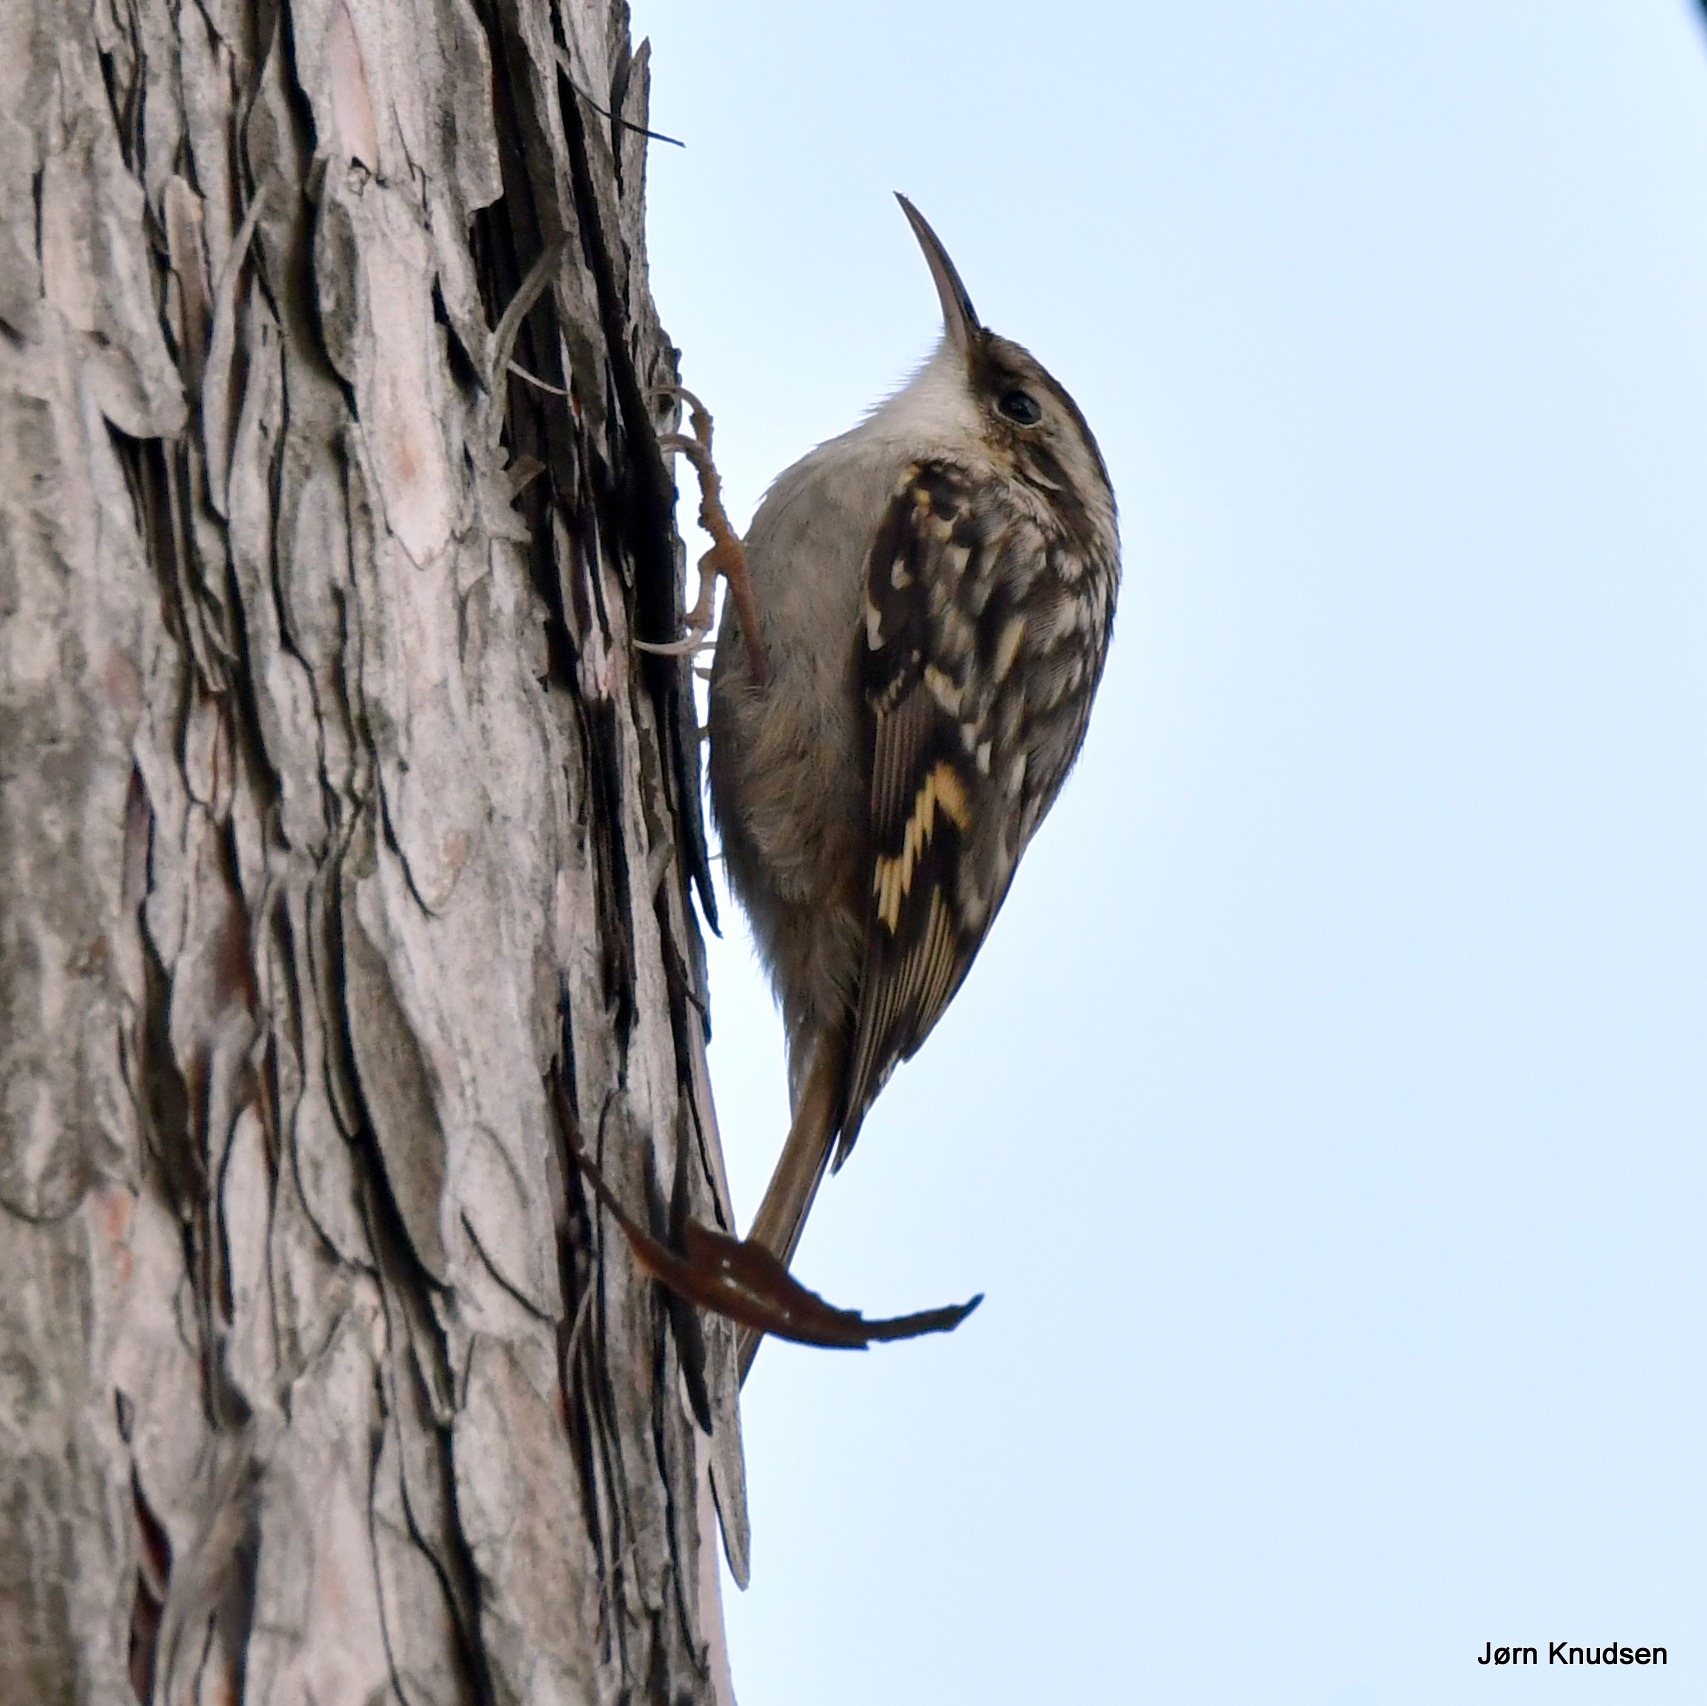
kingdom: Animalia
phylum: Chordata
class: Aves
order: Passeriformes
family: Certhiidae
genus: Certhia
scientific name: Certhia familiaris
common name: Træløber
